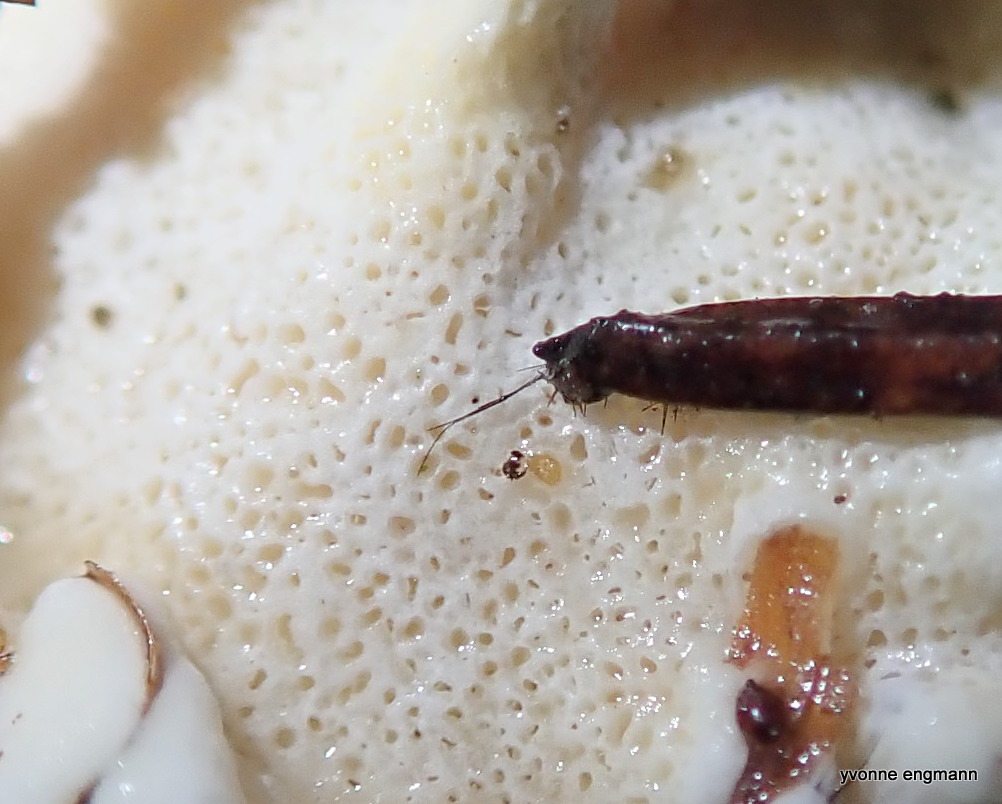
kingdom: Fungi
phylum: Basidiomycota
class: Agaricomycetes
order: Russulales
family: Bondarzewiaceae
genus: Heterobasidion
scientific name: Heterobasidion
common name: rodfordærver
